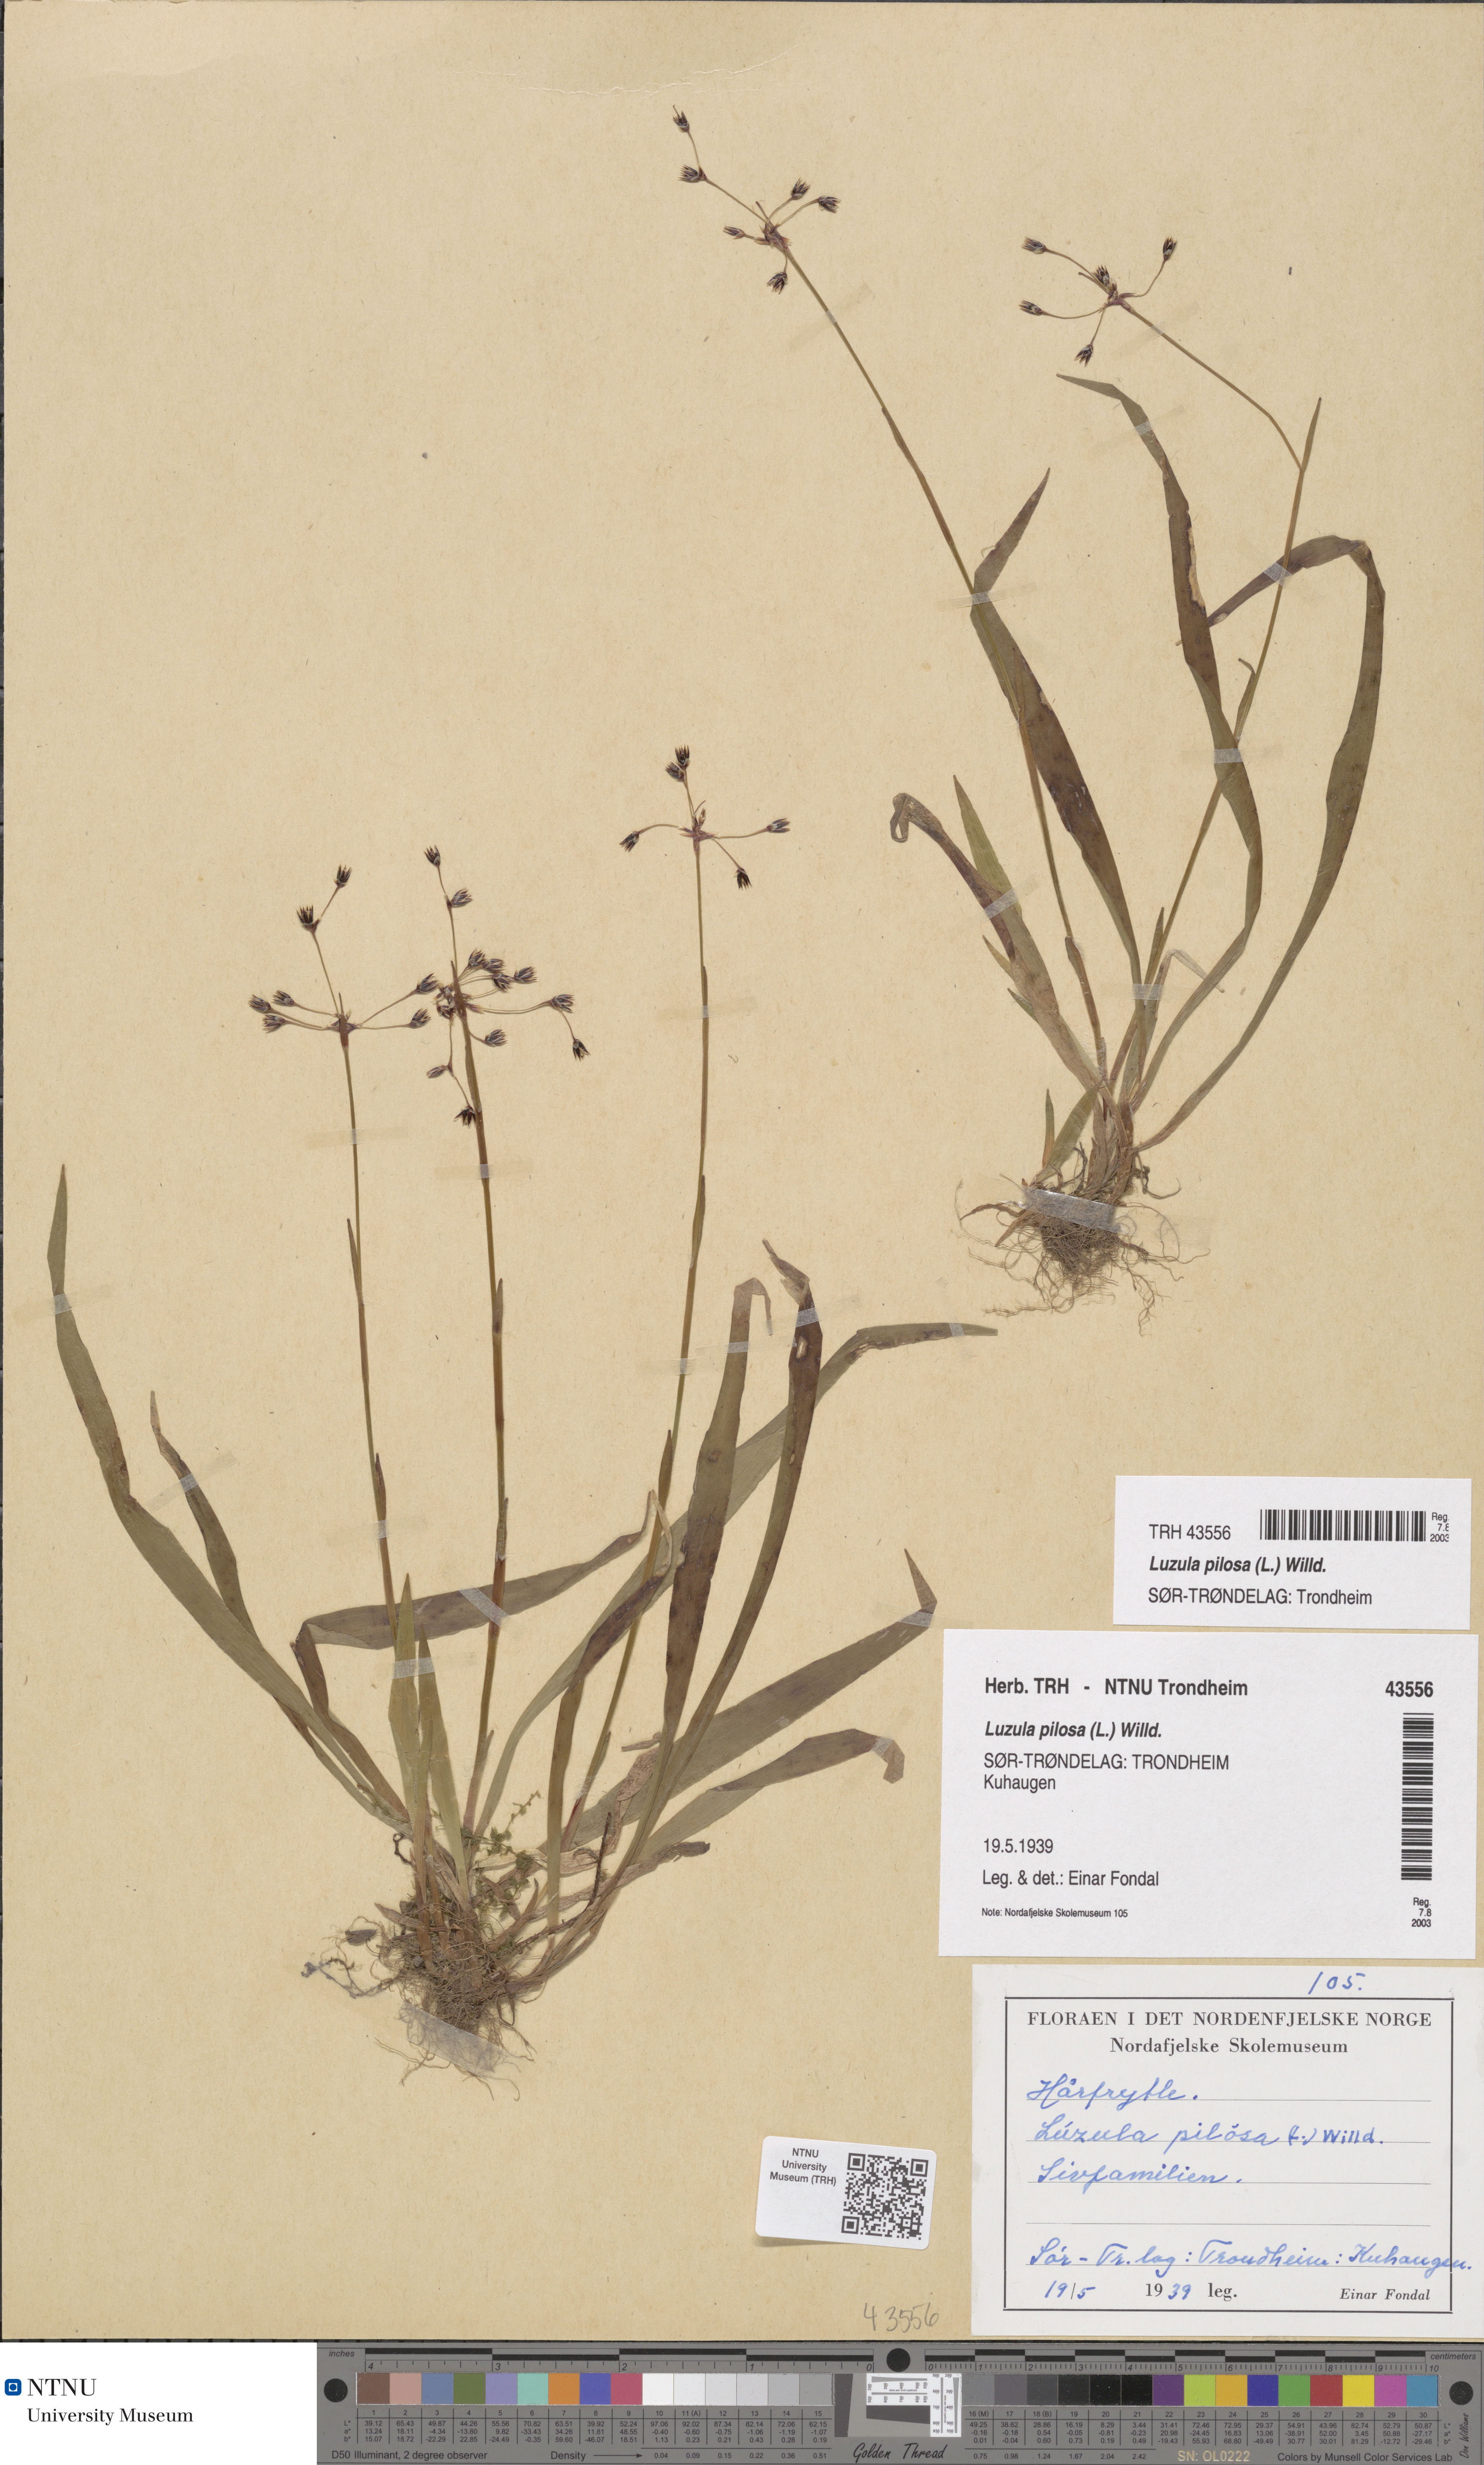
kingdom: Plantae
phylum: Tracheophyta
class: Liliopsida
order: Poales
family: Juncaceae
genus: Luzula
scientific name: Luzula pilosa
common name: Hairy wood-rush
